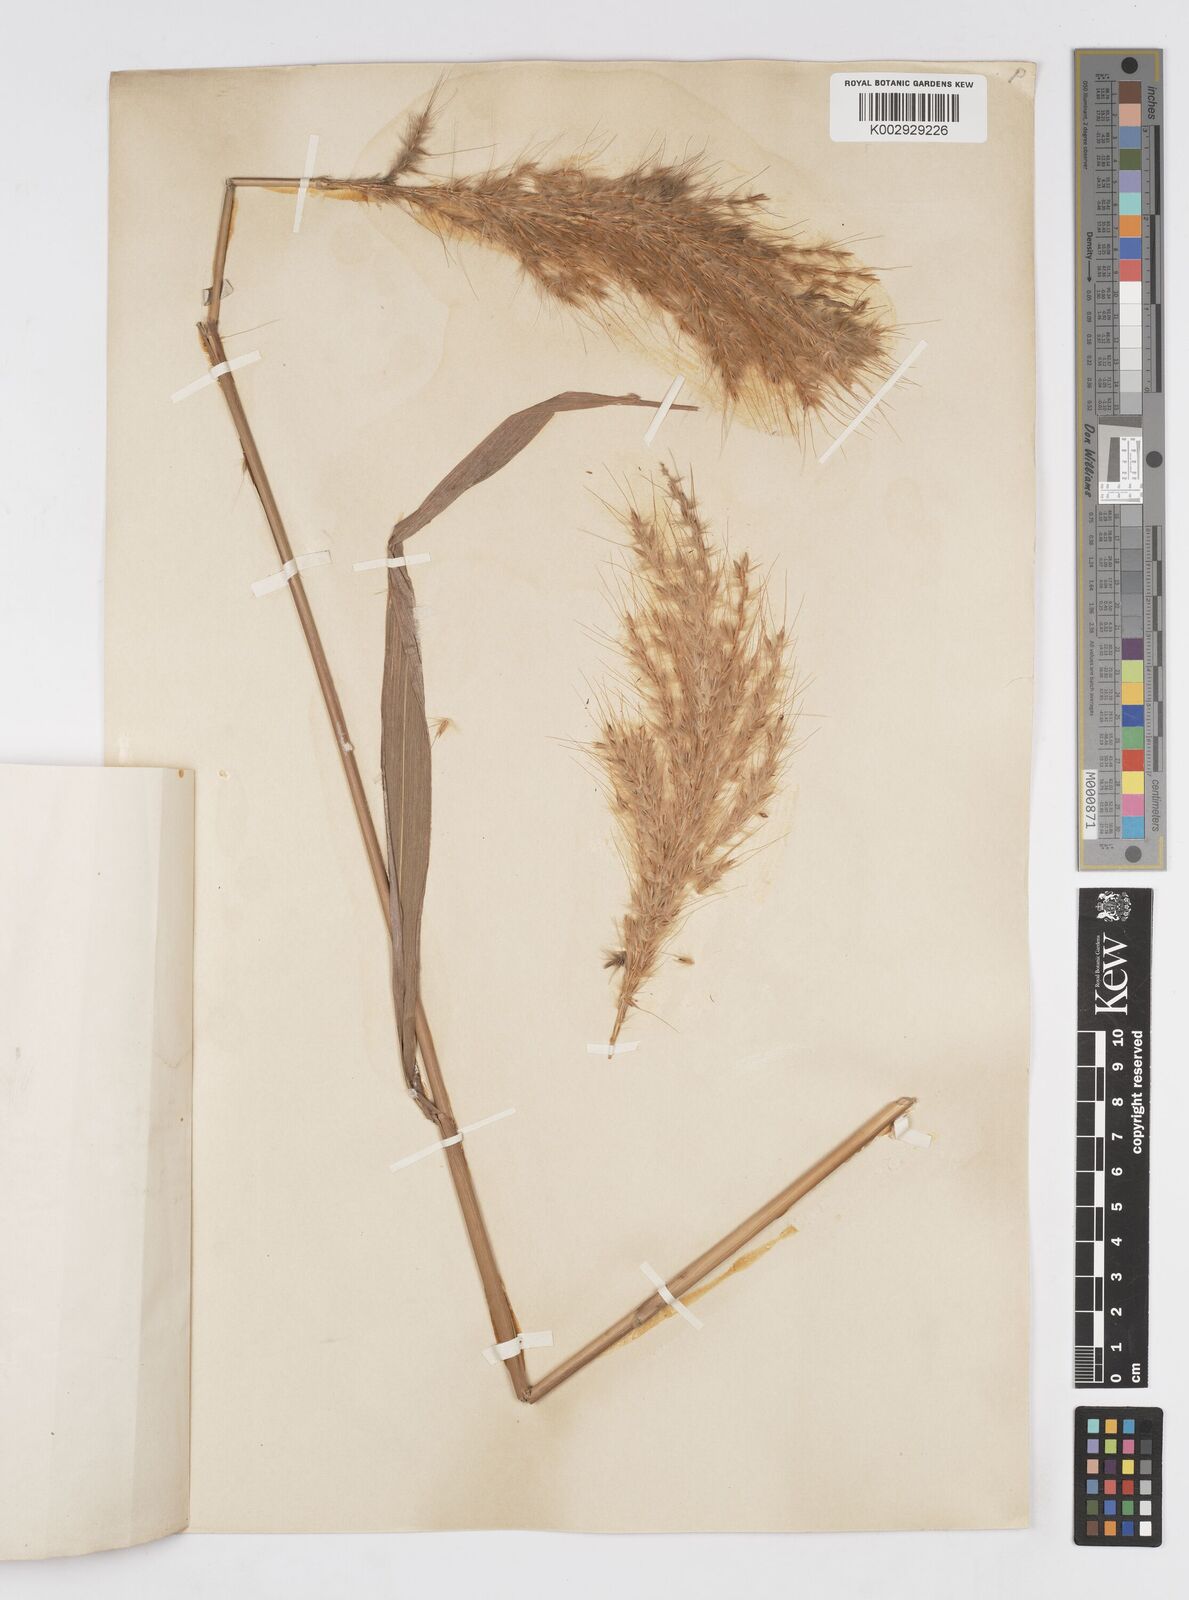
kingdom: Plantae
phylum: Tracheophyta
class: Liliopsida
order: Poales
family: Poaceae
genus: Melinis
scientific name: Melinis longiseta
